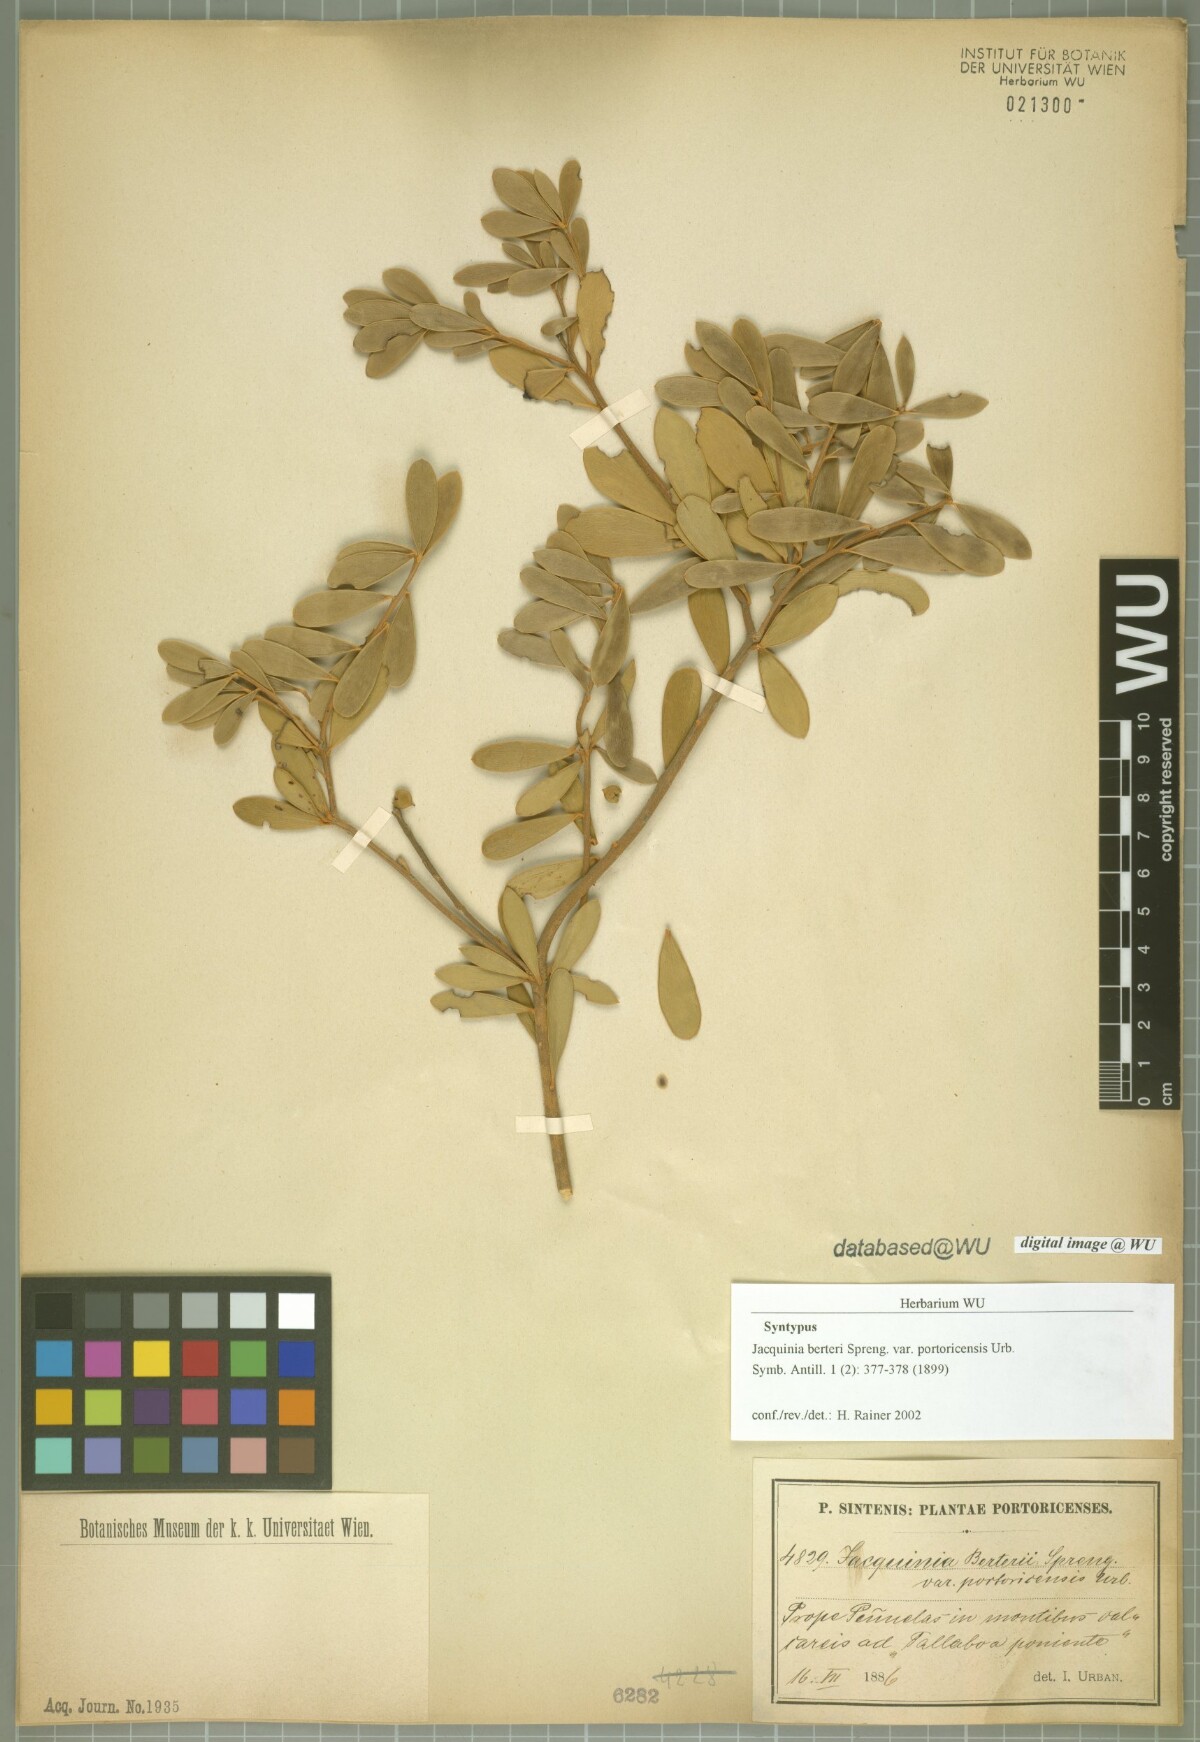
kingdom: Plantae
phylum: Tracheophyta
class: Magnoliopsida
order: Ericales
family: Primulaceae
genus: Jacquinia
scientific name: Jacquinia berteroi
